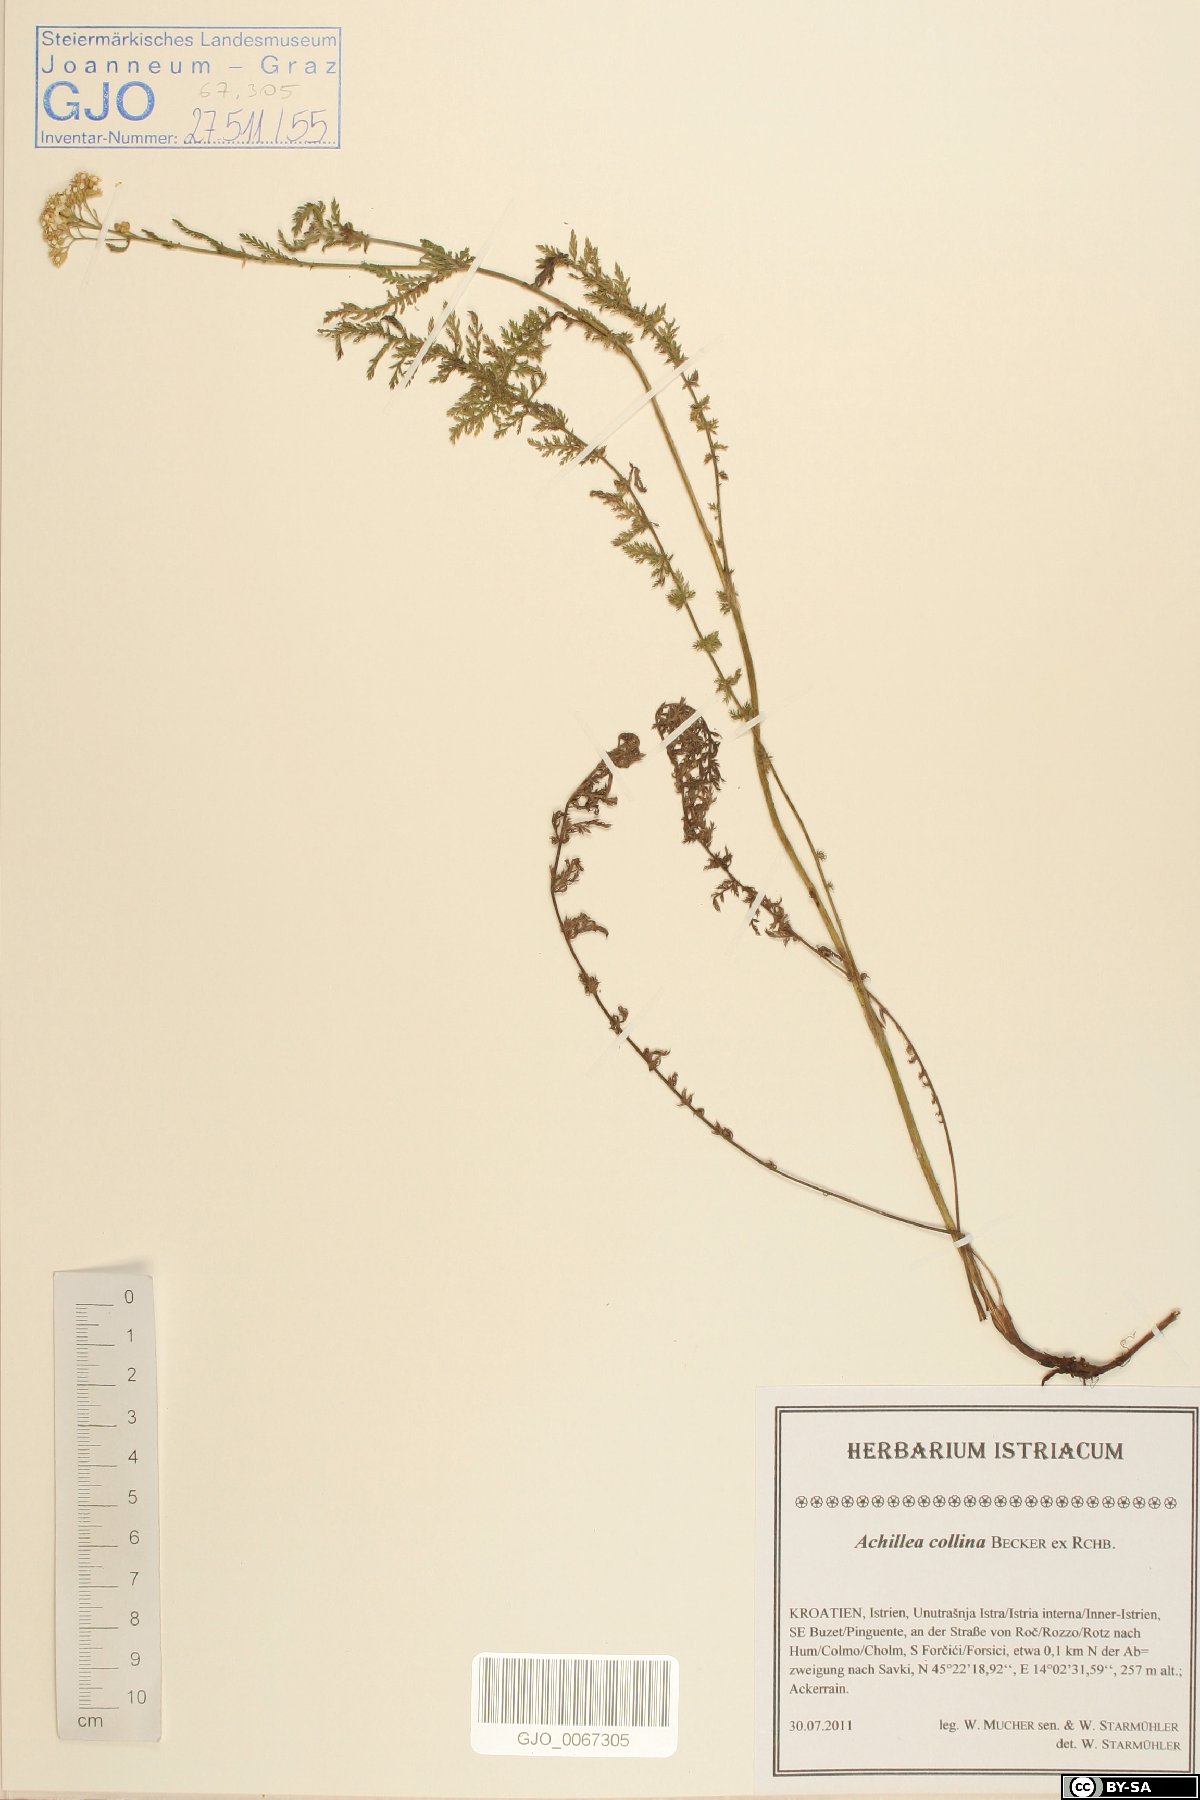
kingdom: Plantae
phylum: Tracheophyta
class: Magnoliopsida
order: Asterales
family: Asteraceae
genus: Achillea
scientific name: Achillea collina
